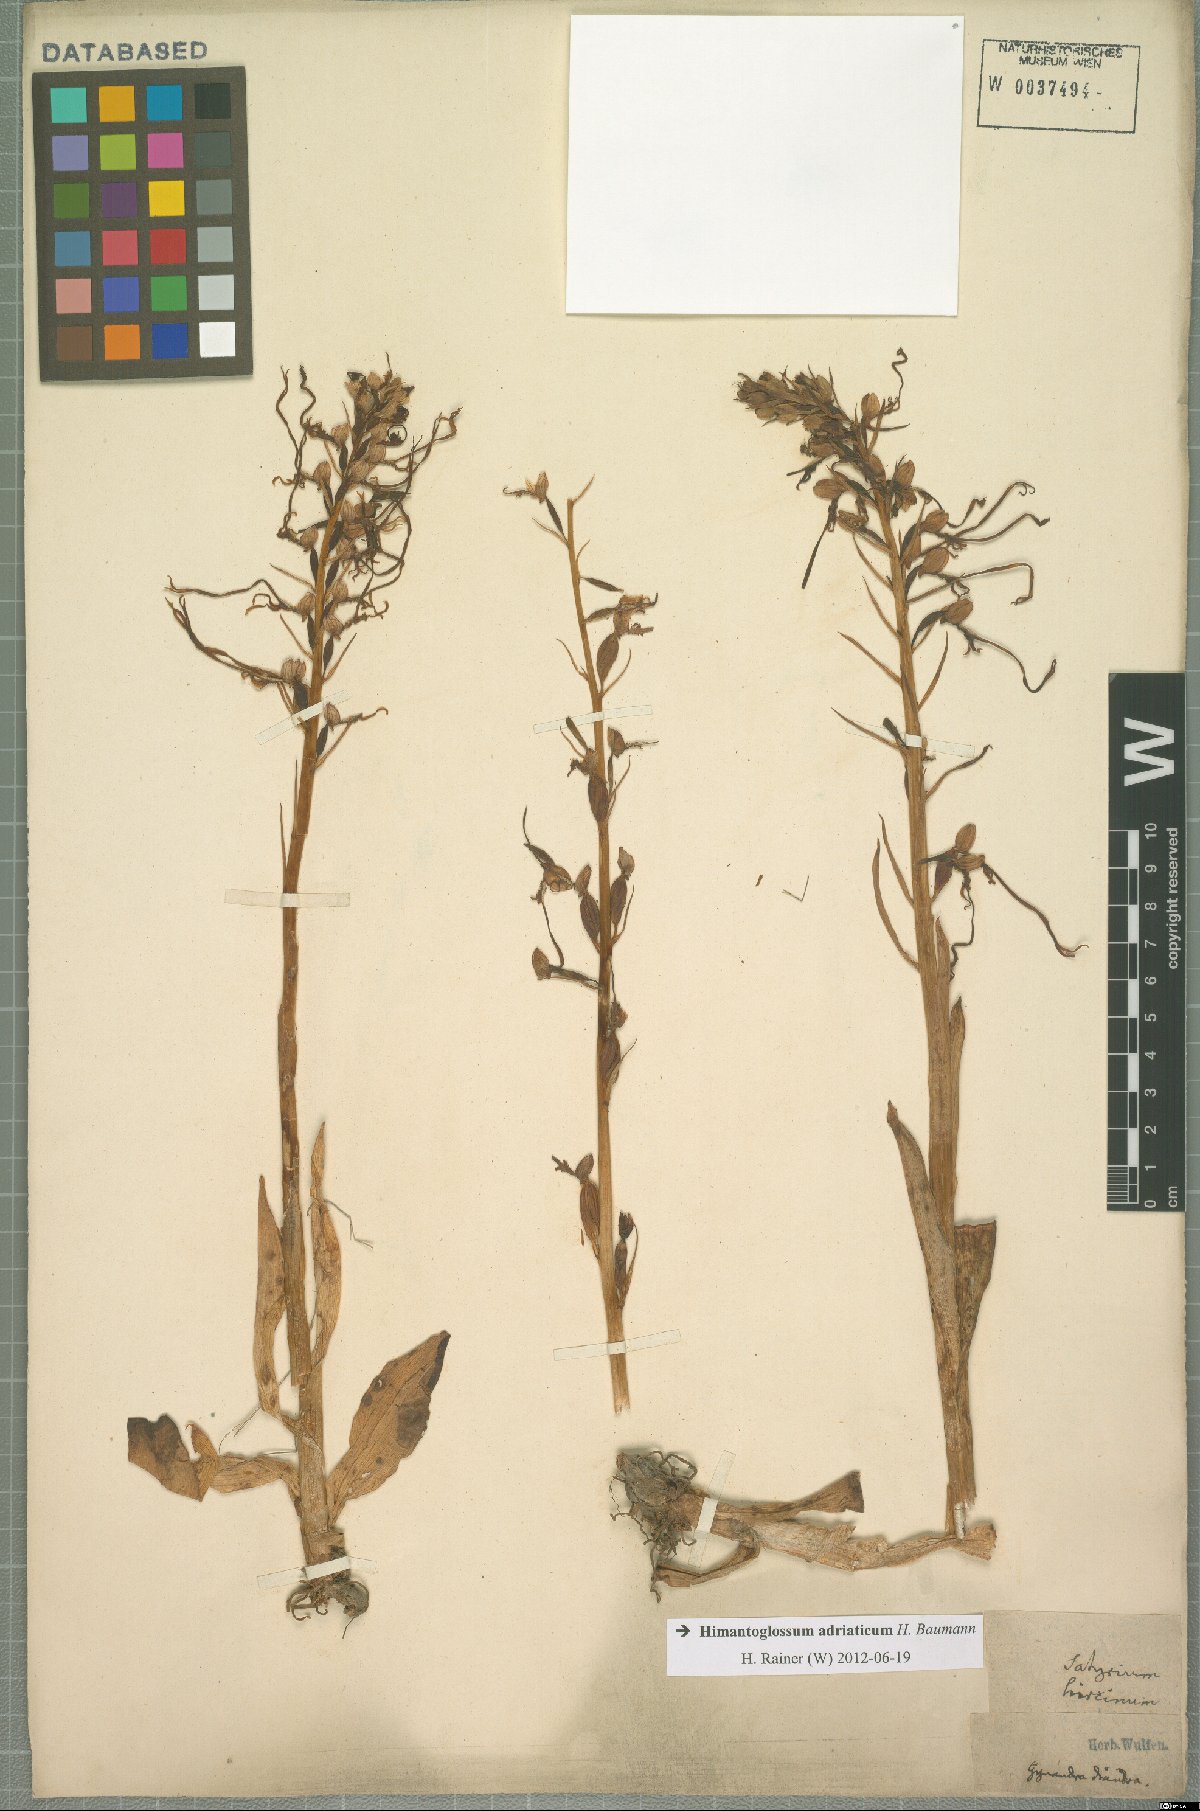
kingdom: Plantae
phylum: Tracheophyta
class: Liliopsida
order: Asparagales
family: Orchidaceae
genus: Himantoglossum
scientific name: Himantoglossum adriaticum
